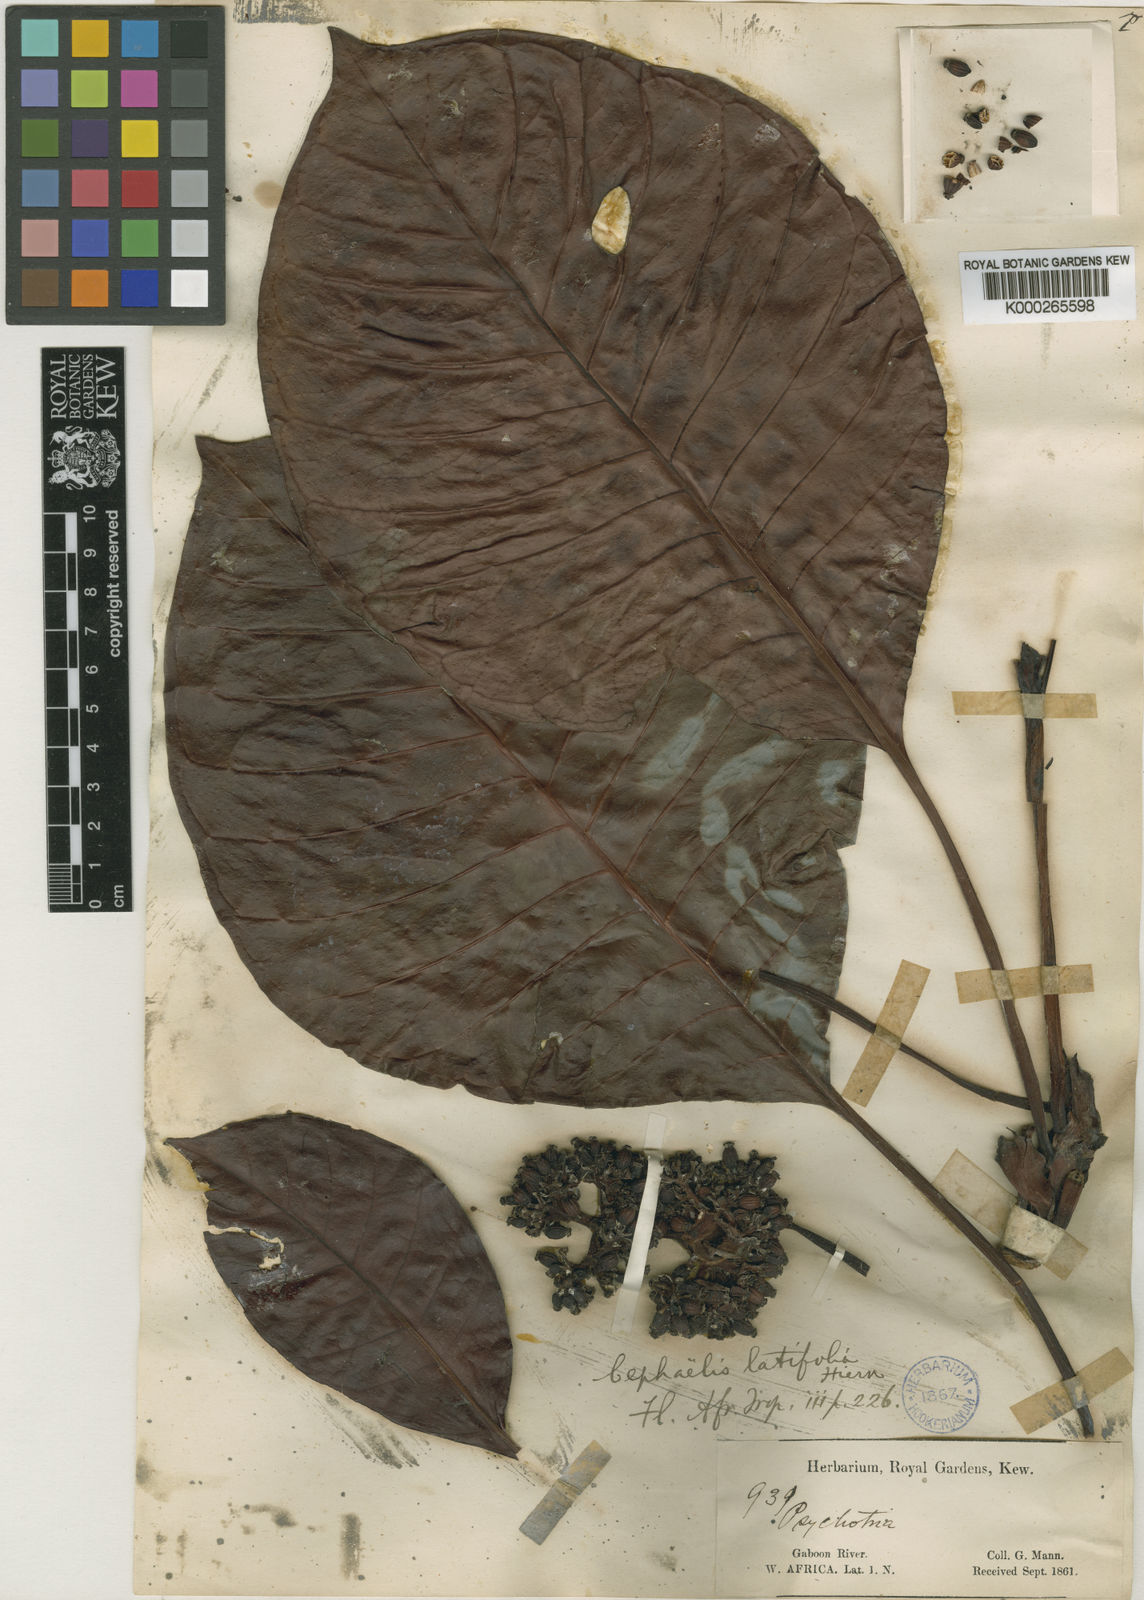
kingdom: Plantae
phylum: Tracheophyta
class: Magnoliopsida
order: Gentianales
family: Rubiaceae
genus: Psychotria
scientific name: Psychotria gaboonensis
